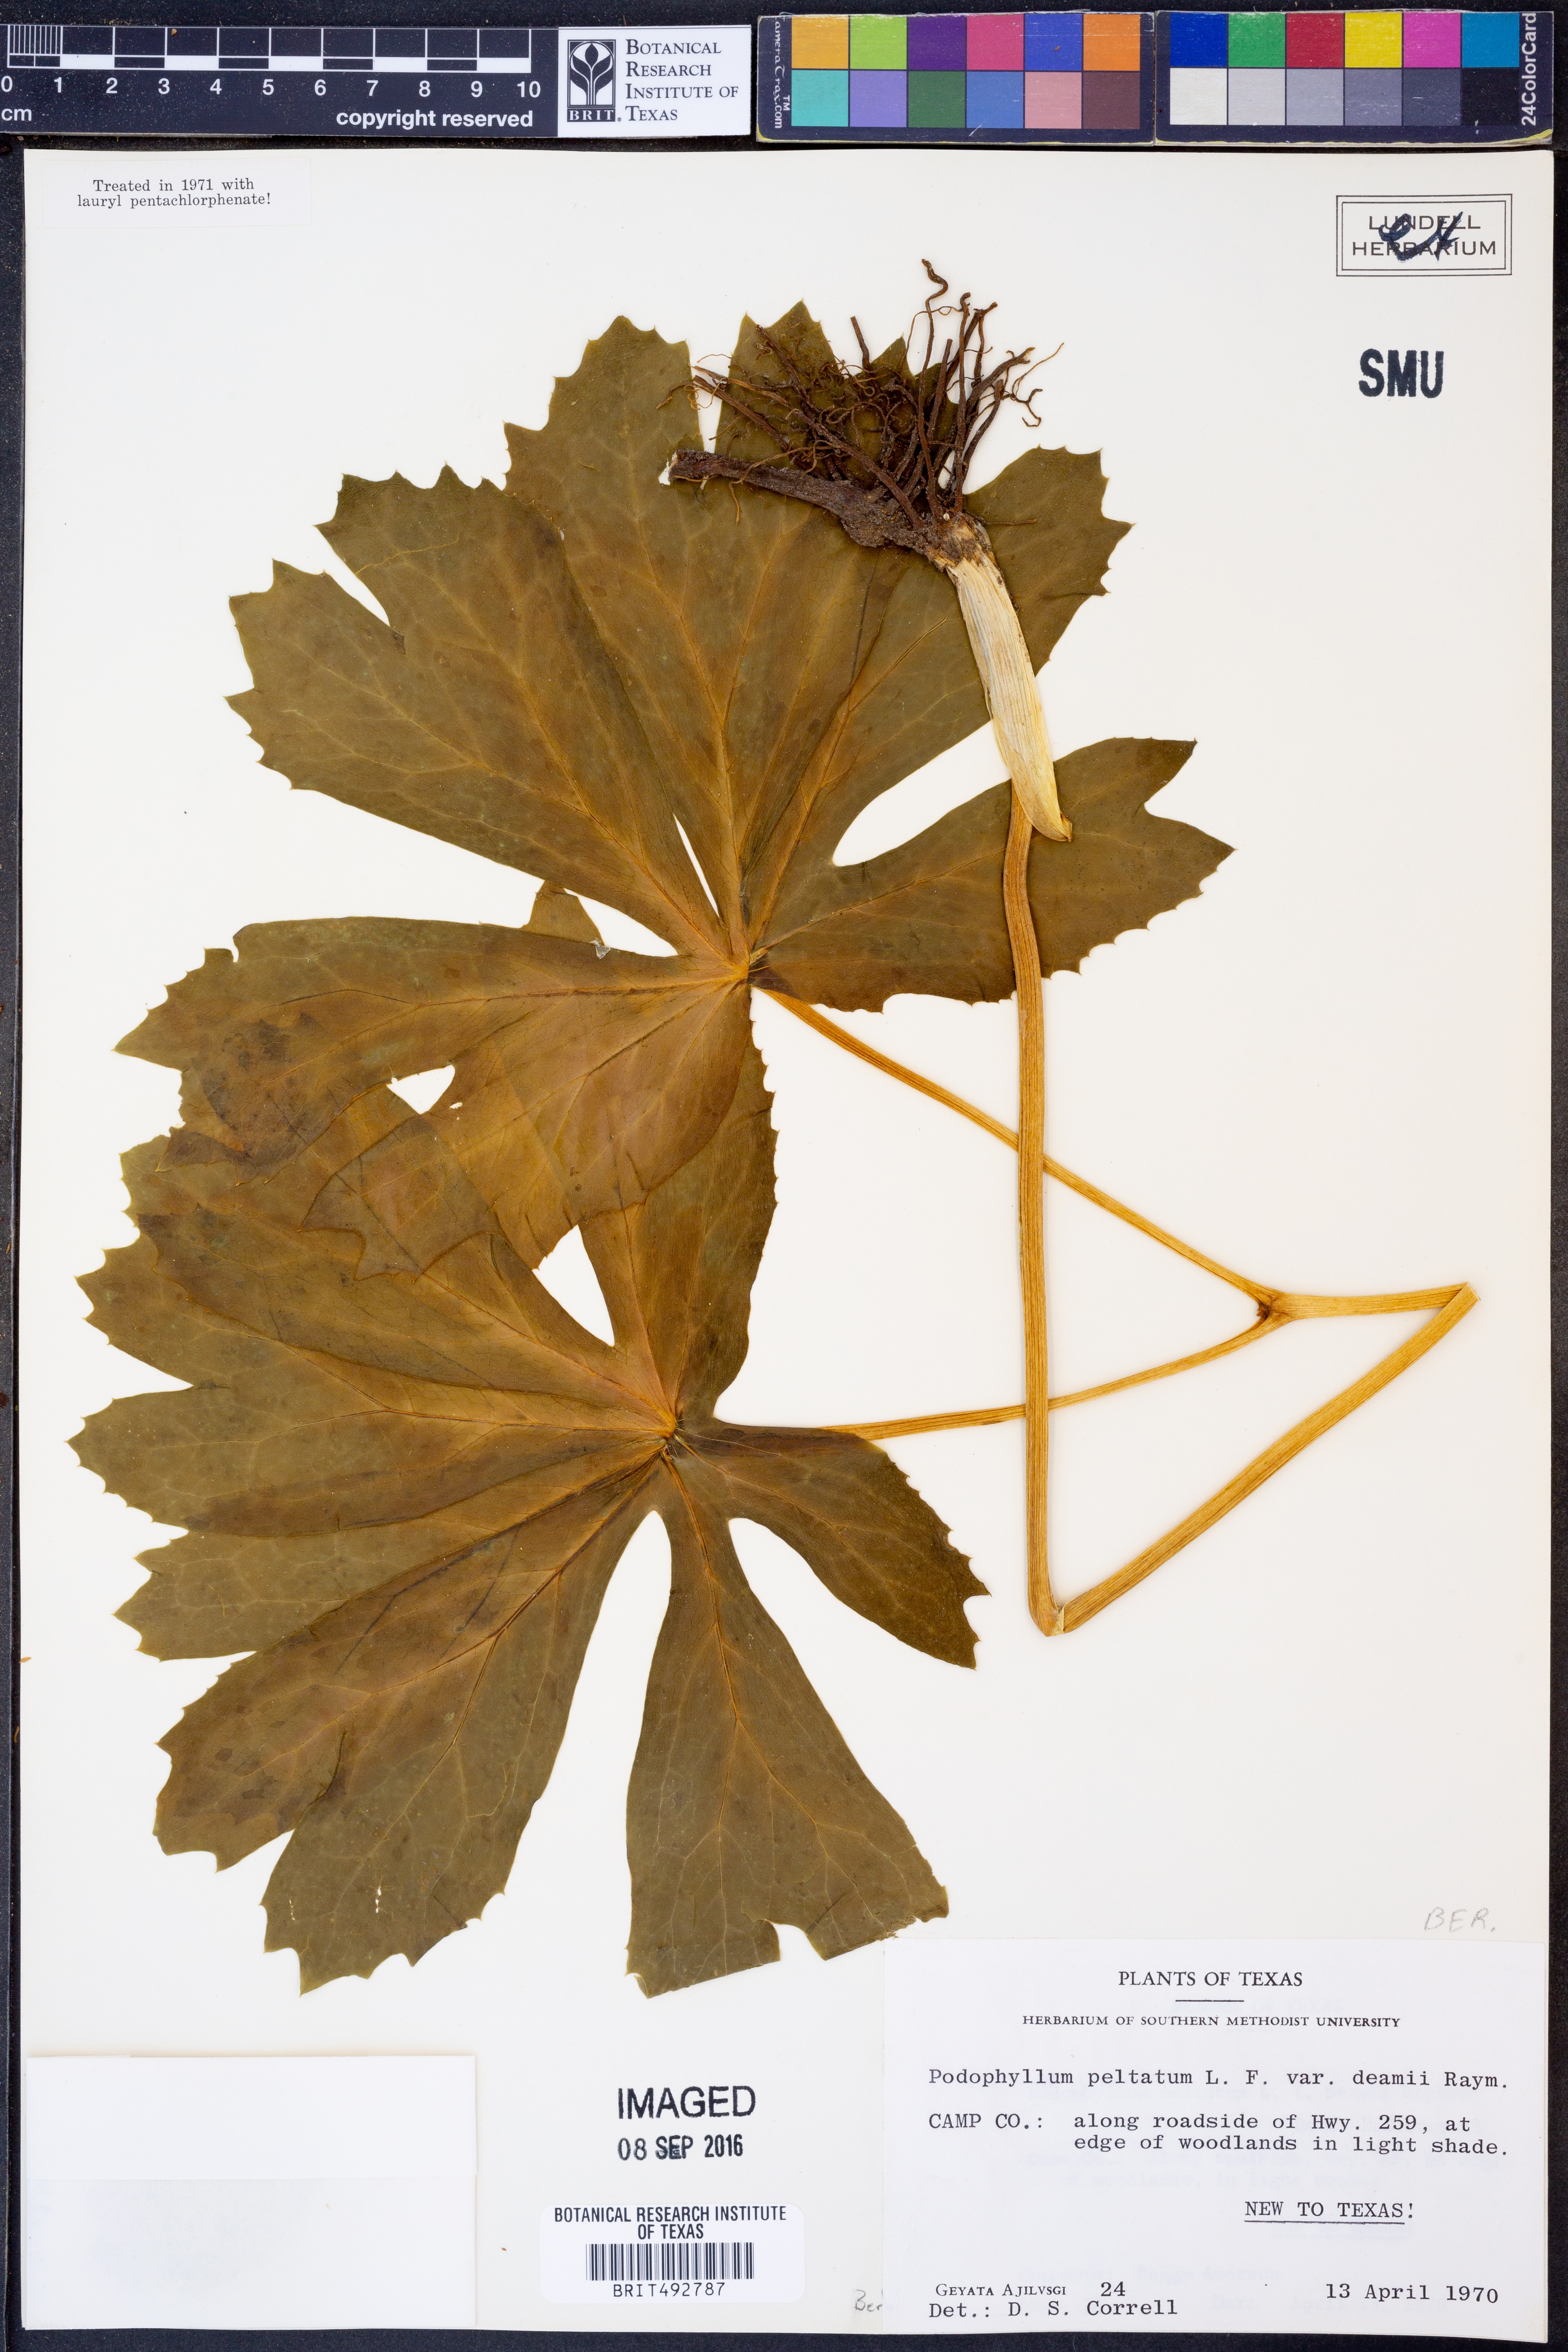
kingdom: Plantae
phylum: Tracheophyta
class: Magnoliopsida
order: Ranunculales
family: Berberidaceae
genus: Podophyllum
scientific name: Podophyllum peltatum
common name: Wild mandrake
